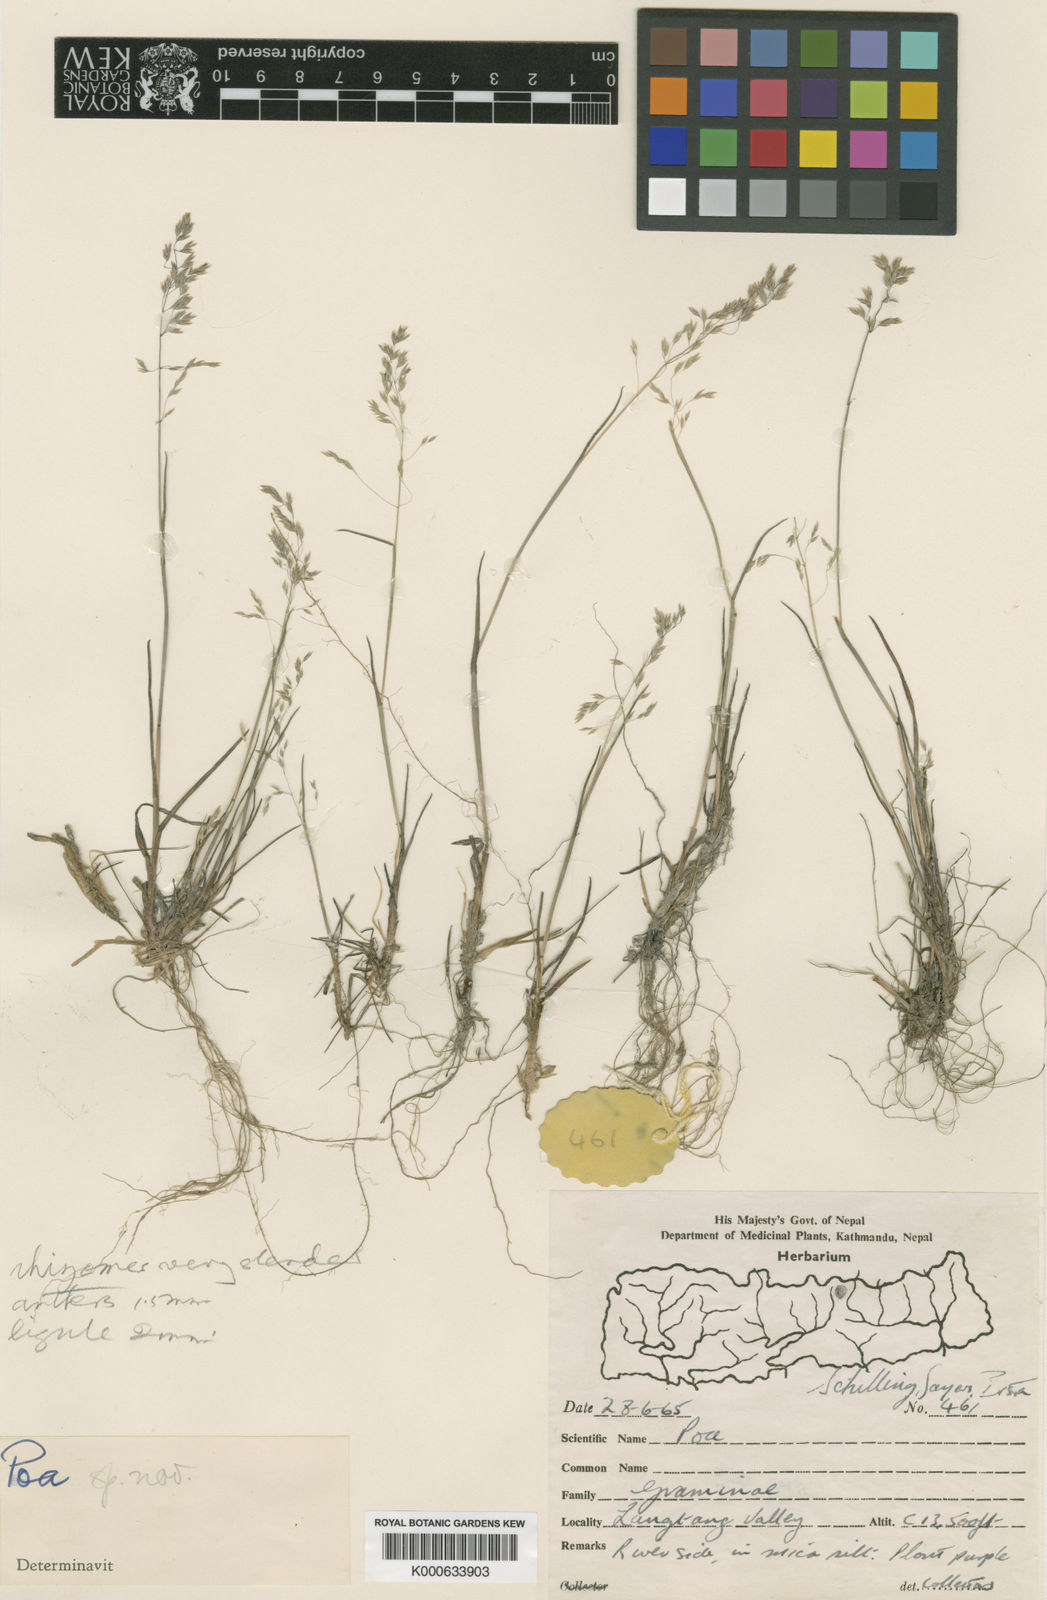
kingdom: Plantae
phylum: Tracheophyta
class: Liliopsida
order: Poales
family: Poaceae
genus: Poa
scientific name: Poa langtangensis
